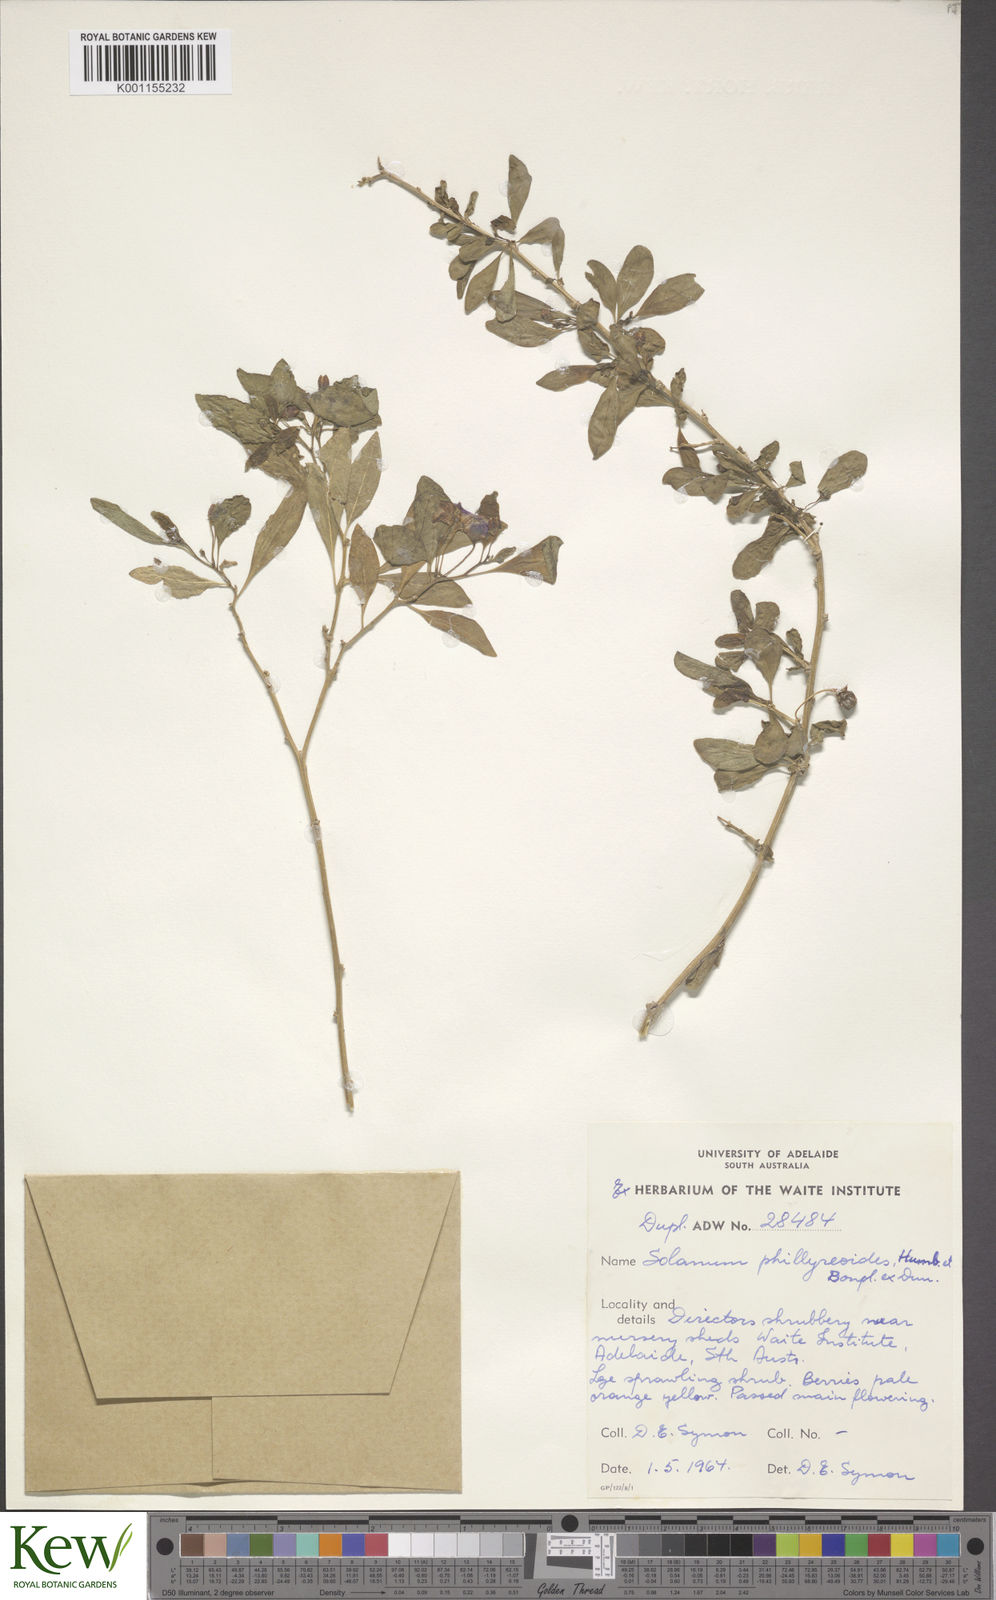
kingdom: Plantae
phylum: Tracheophyta
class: Magnoliopsida
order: Solanales
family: Solanaceae
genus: Lycianthes
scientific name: Lycianthes lycioides
